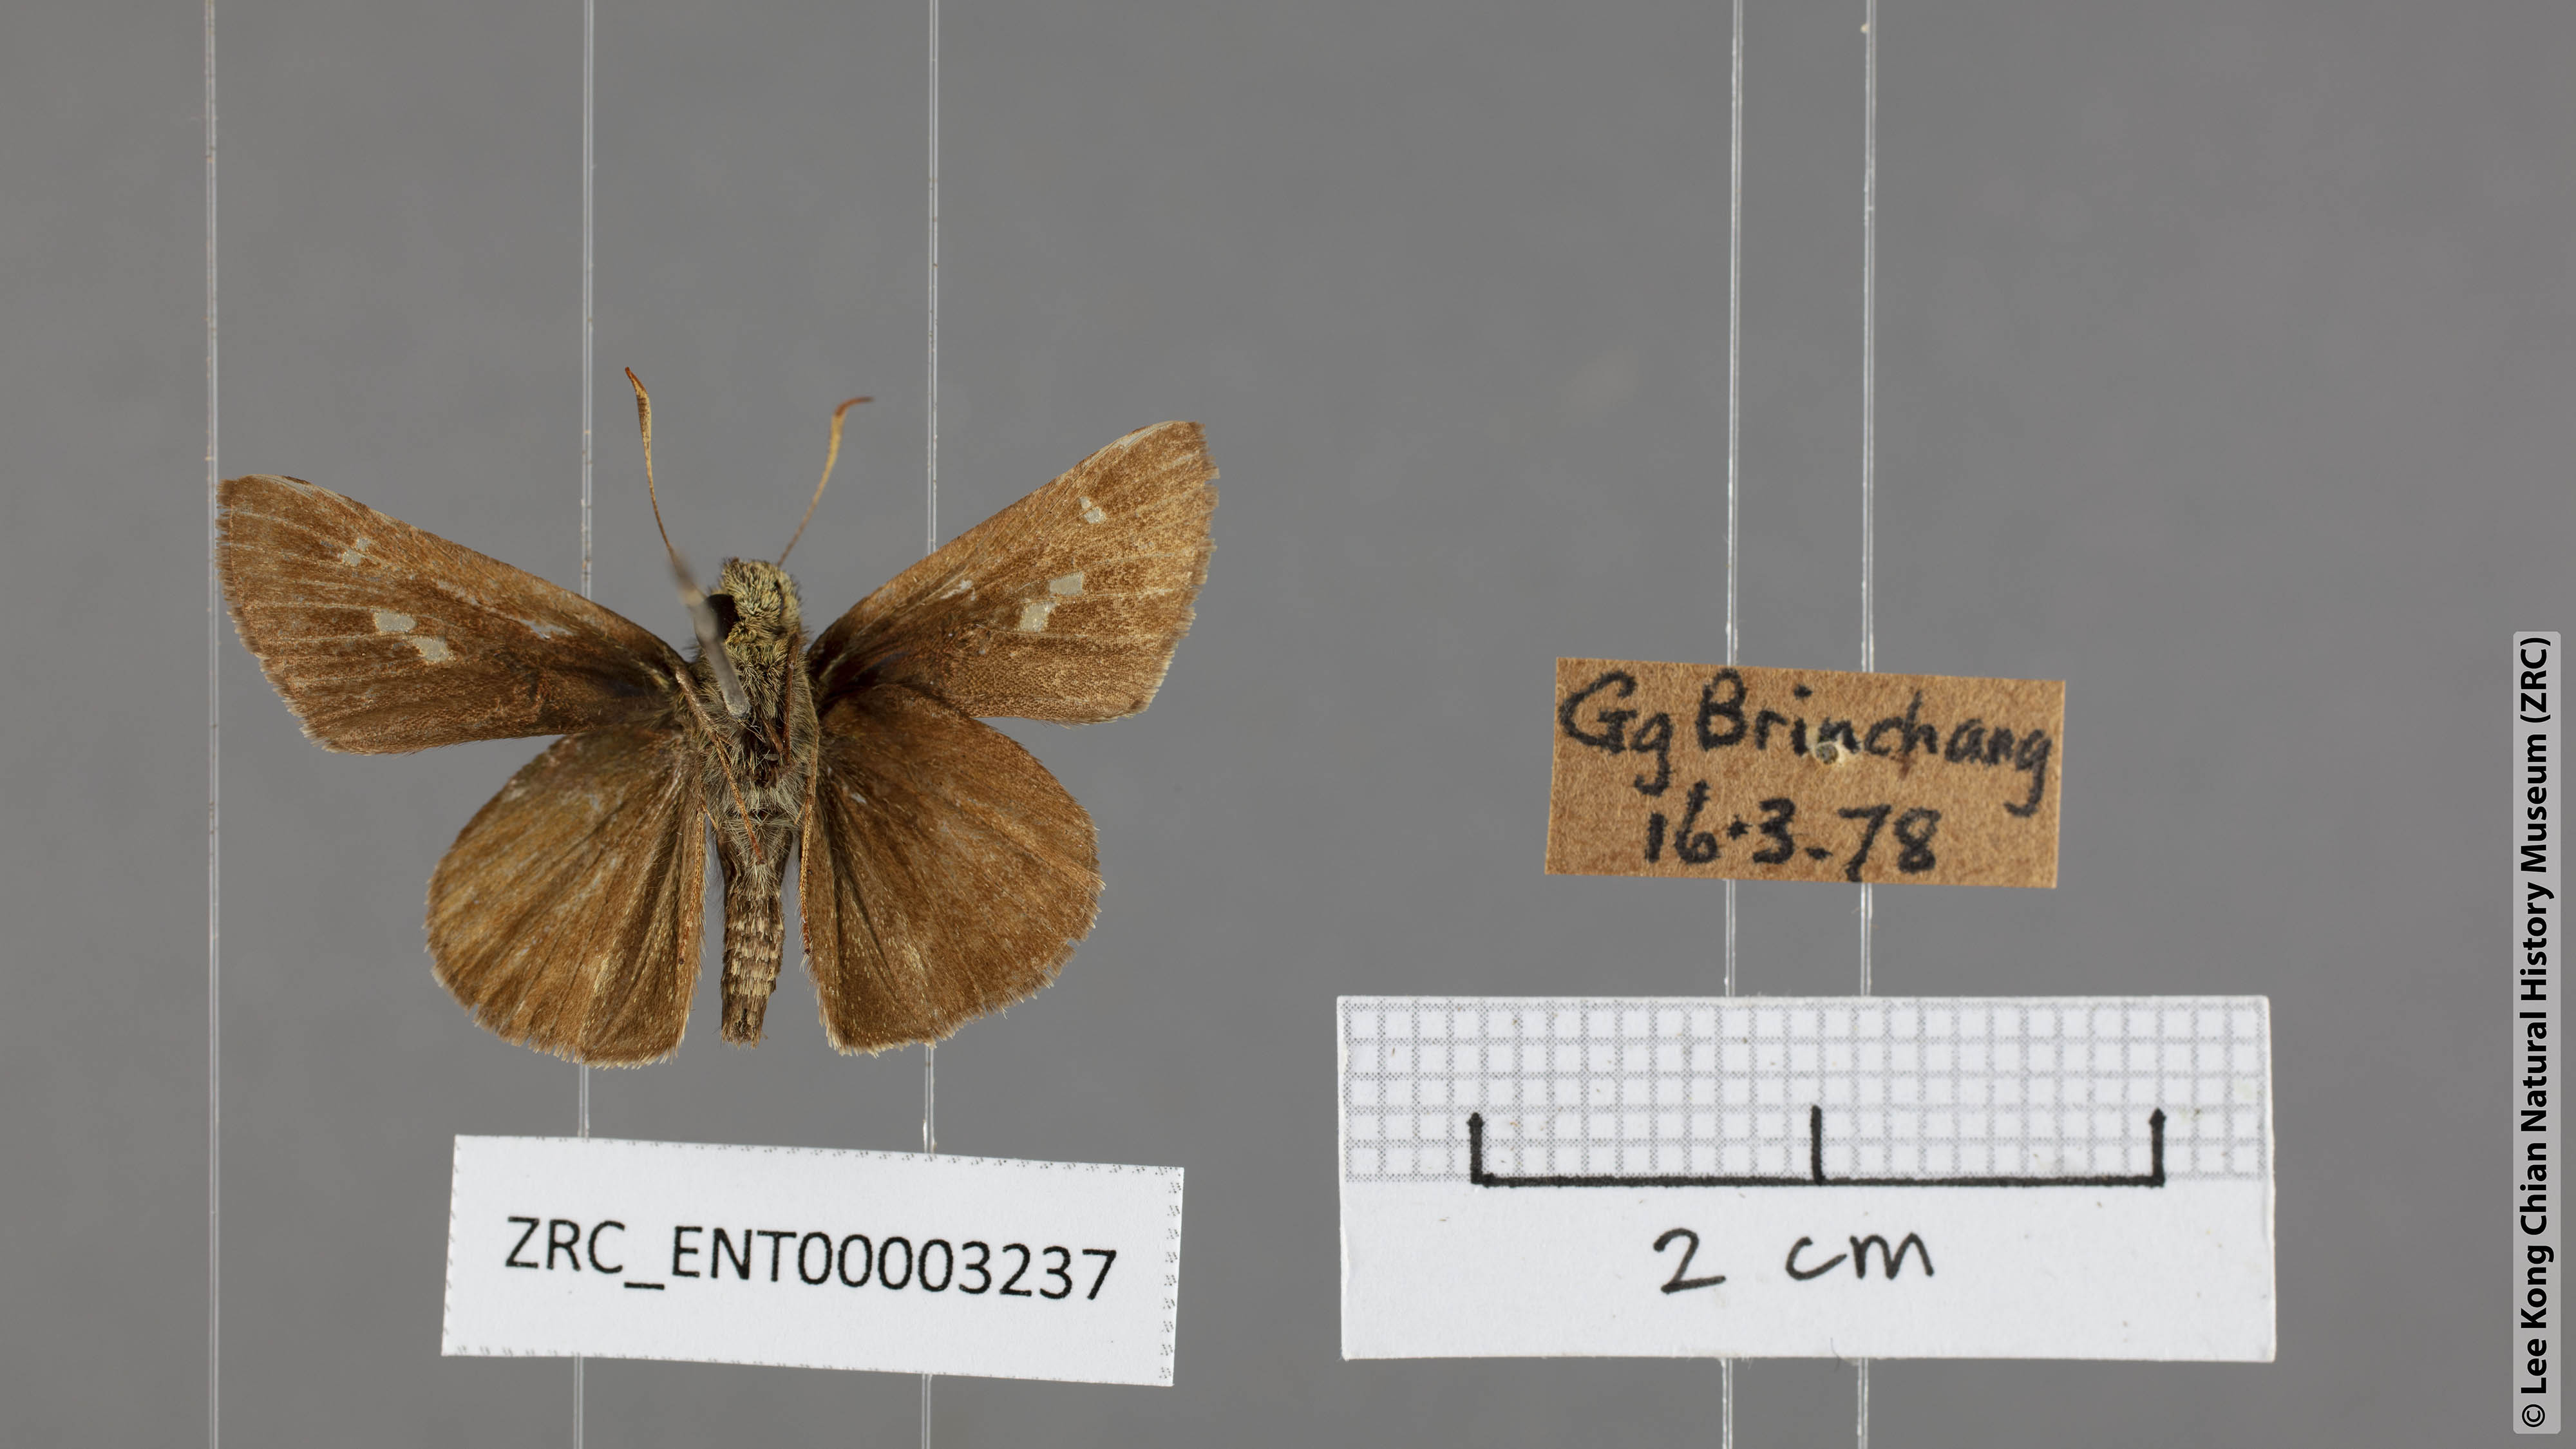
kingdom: Animalia
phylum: Arthropoda
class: Insecta
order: Lepidoptera
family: Hesperiidae
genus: Halpe
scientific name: Halpe pelethronix
